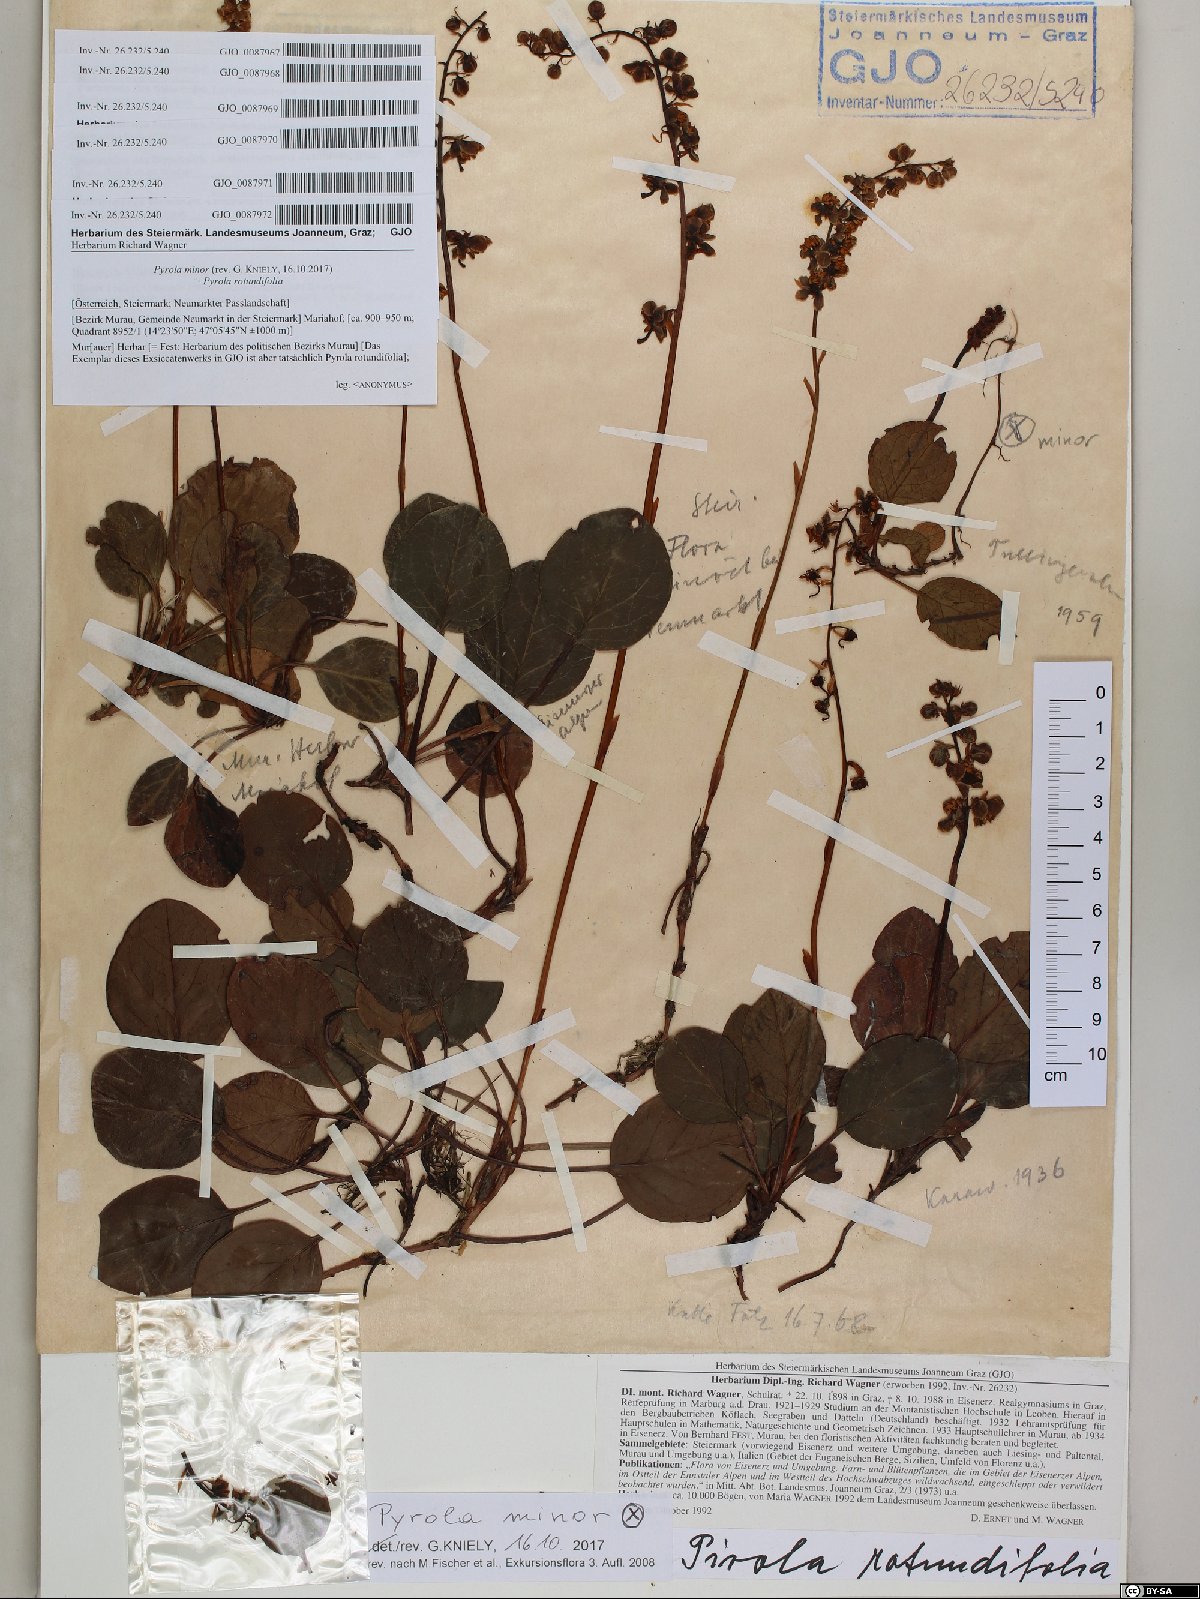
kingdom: Plantae
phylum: Tracheophyta
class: Magnoliopsida
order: Ericales
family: Ericaceae
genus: Pyrola
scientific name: Pyrola minor
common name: Common wintergreen
